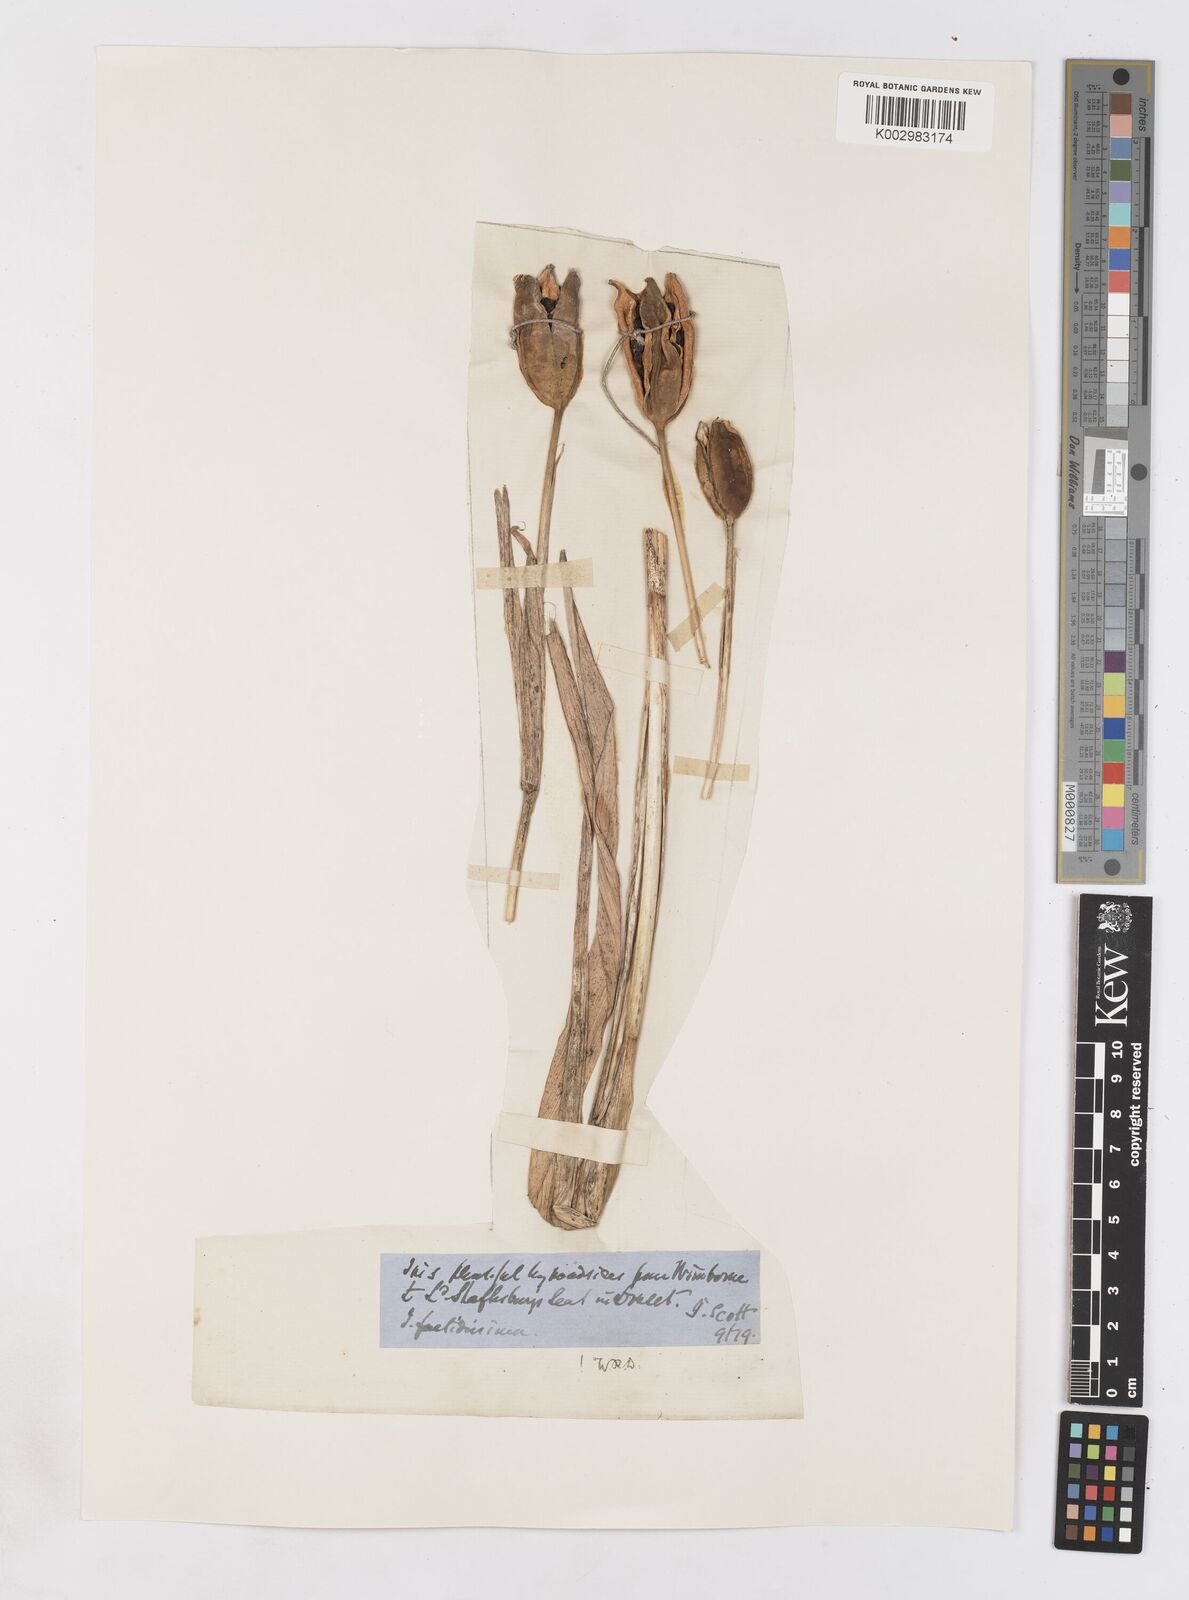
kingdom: Plantae
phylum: Tracheophyta
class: Liliopsida
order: Asparagales
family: Iridaceae
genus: Iris
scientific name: Iris foetidissima
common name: Stinking iris
